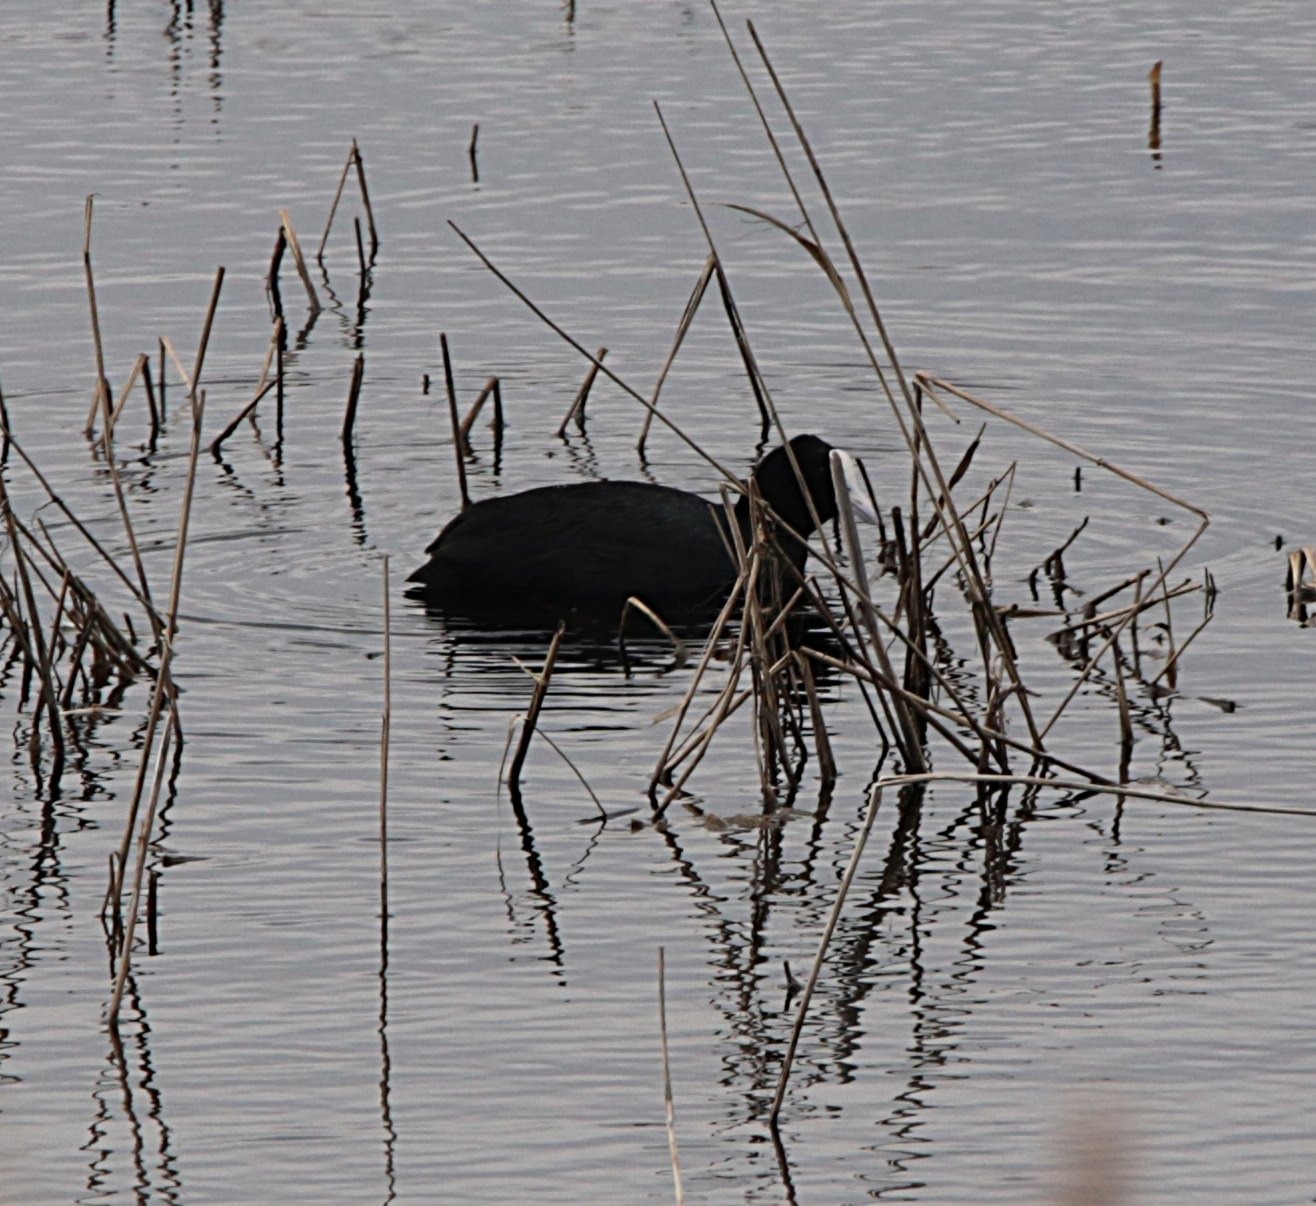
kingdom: Animalia
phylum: Chordata
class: Aves
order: Gruiformes
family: Rallidae
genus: Fulica
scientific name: Fulica atra
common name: Blishøne
